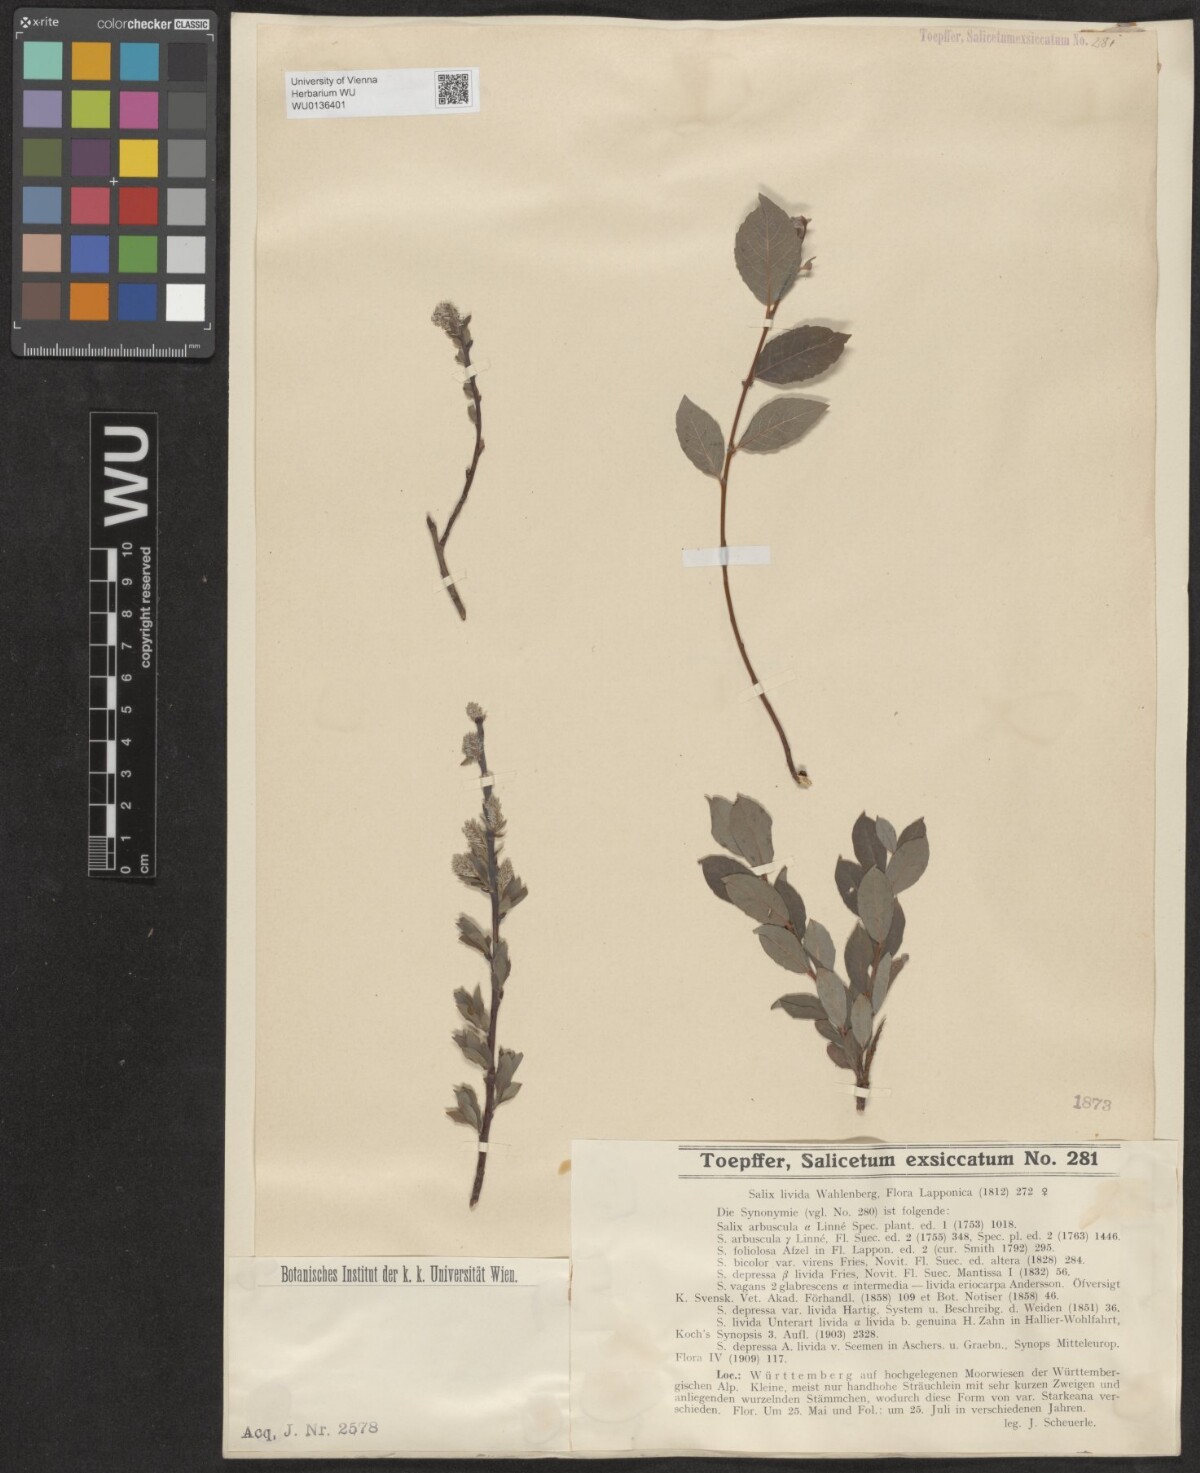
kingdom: Plantae
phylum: Tracheophyta
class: Magnoliopsida
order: Malpighiales
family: Salicaceae
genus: Salix
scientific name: Salix lanata
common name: Woolly willow
